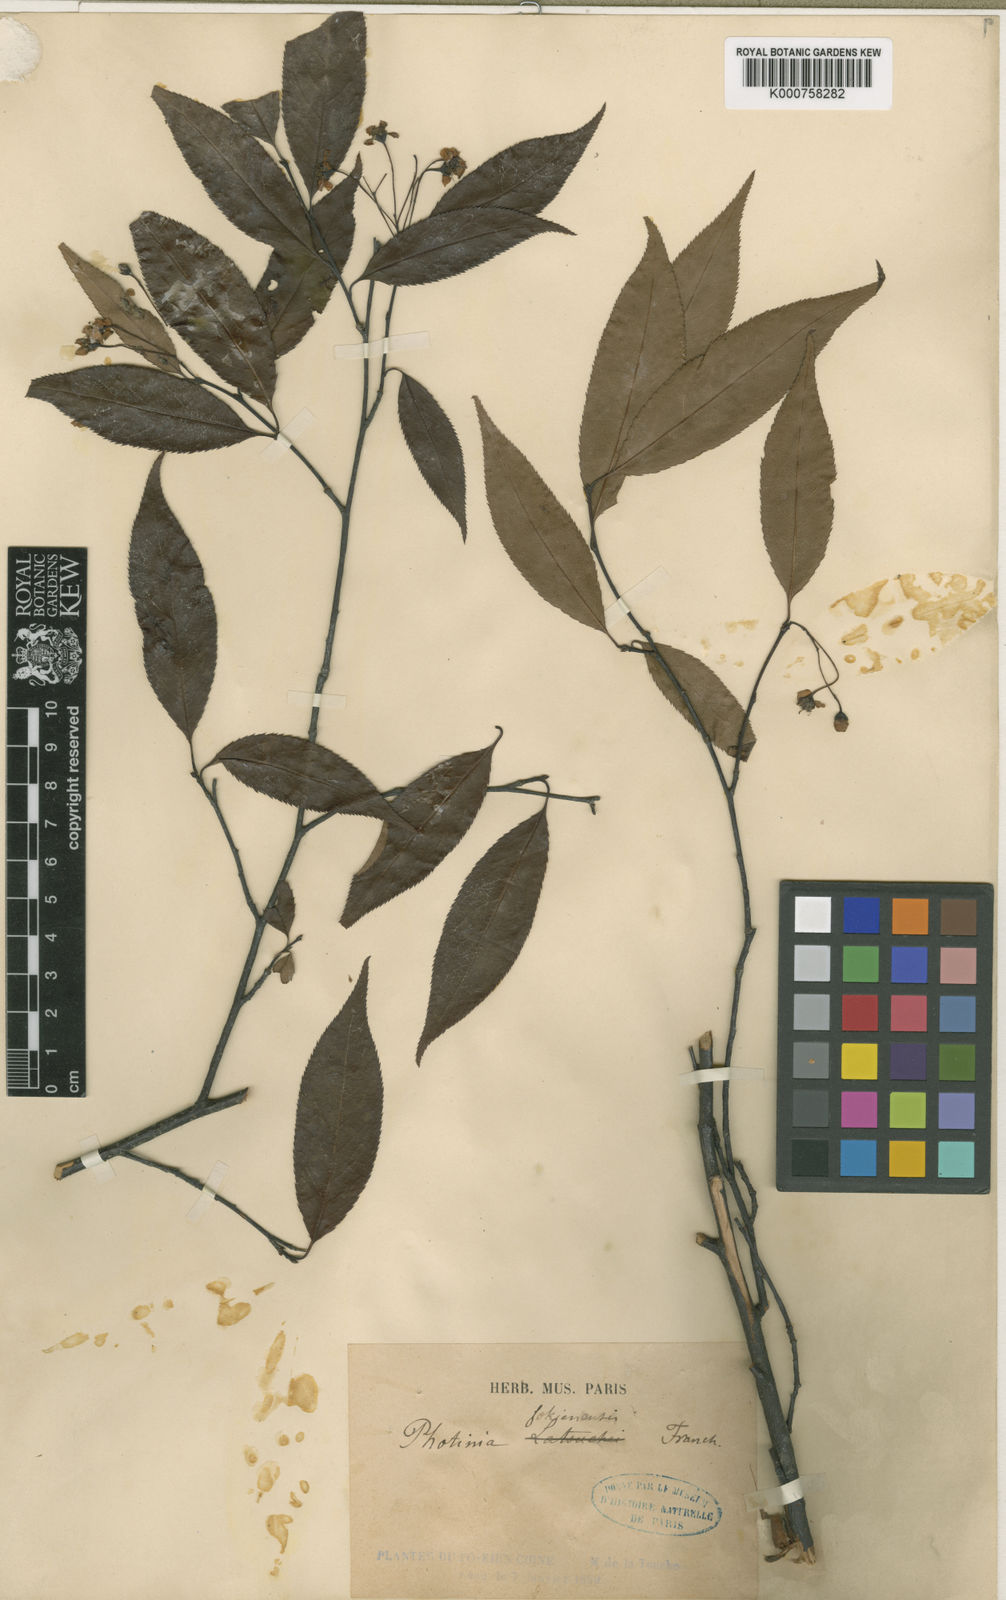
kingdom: Plantae
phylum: Tracheophyta
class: Magnoliopsida
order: Rosales
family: Rosaceae
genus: Pourthiaea
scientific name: Pourthiaea fokienensis
